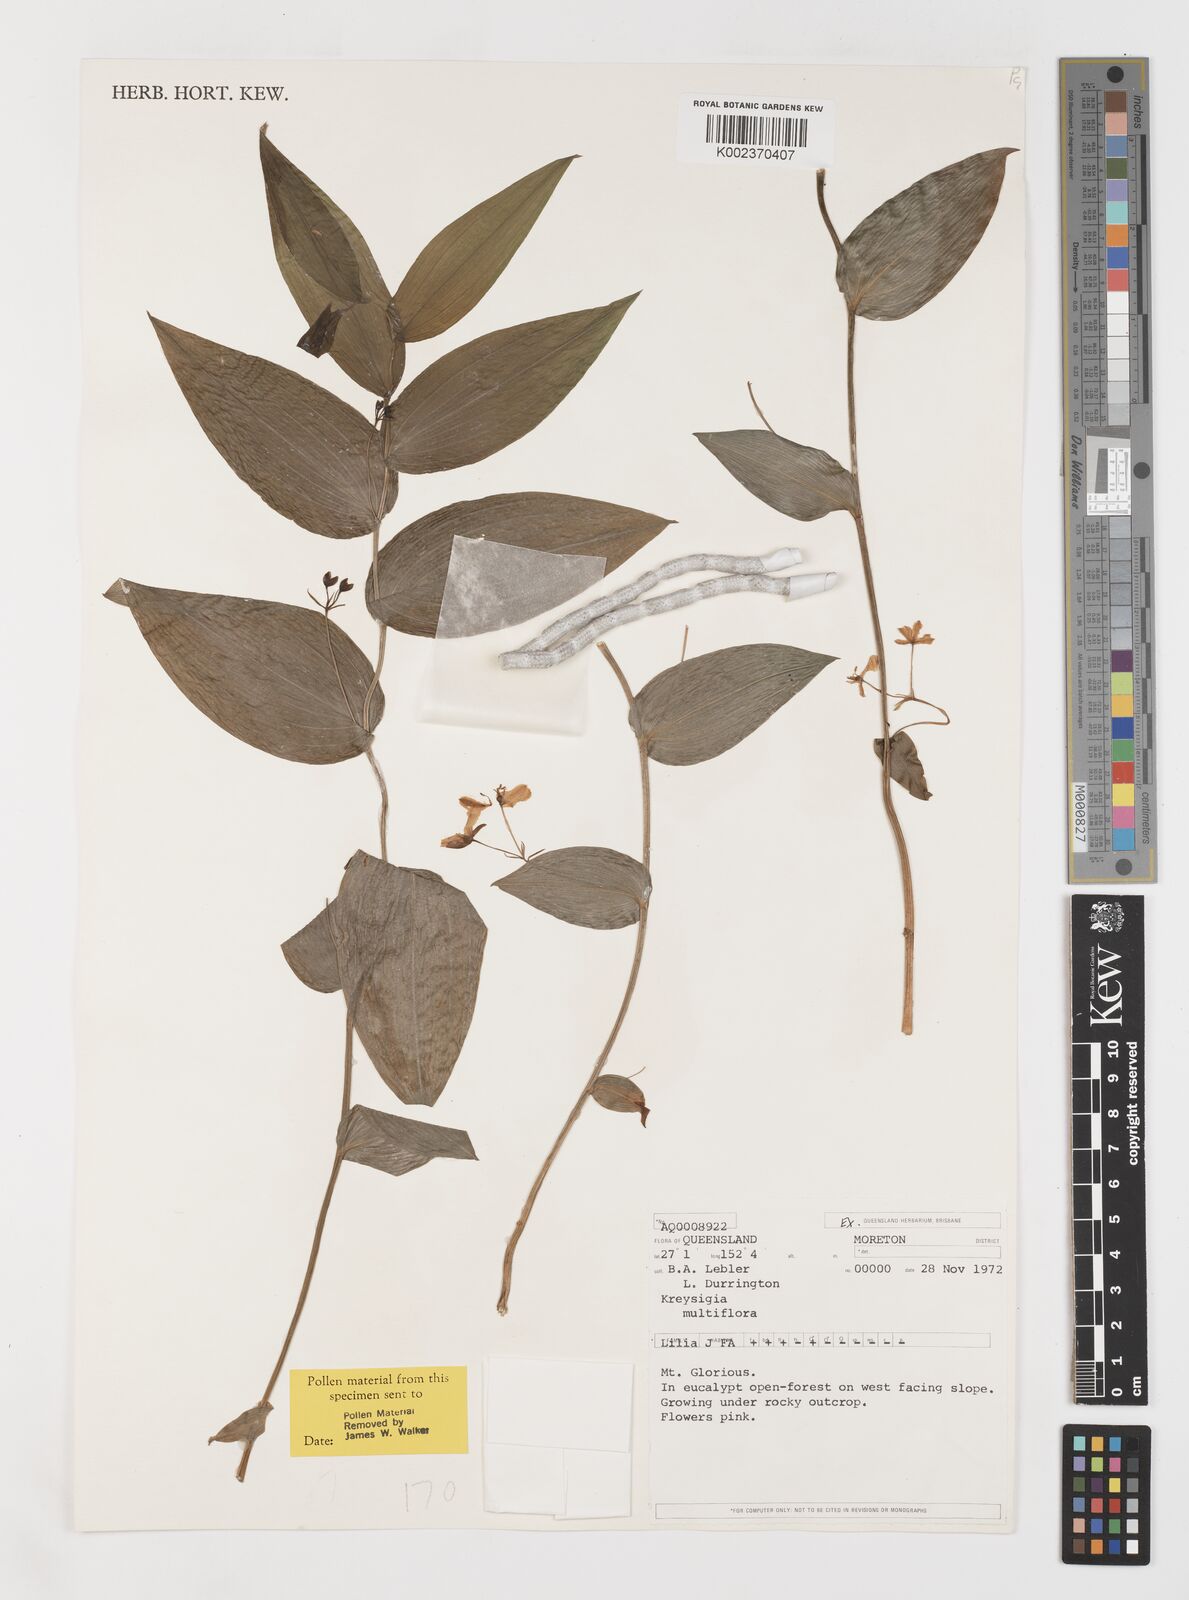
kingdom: Plantae
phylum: Tracheophyta
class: Liliopsida
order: Liliales
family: Colchicaceae
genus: Tripladenia
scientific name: Tripladenia
